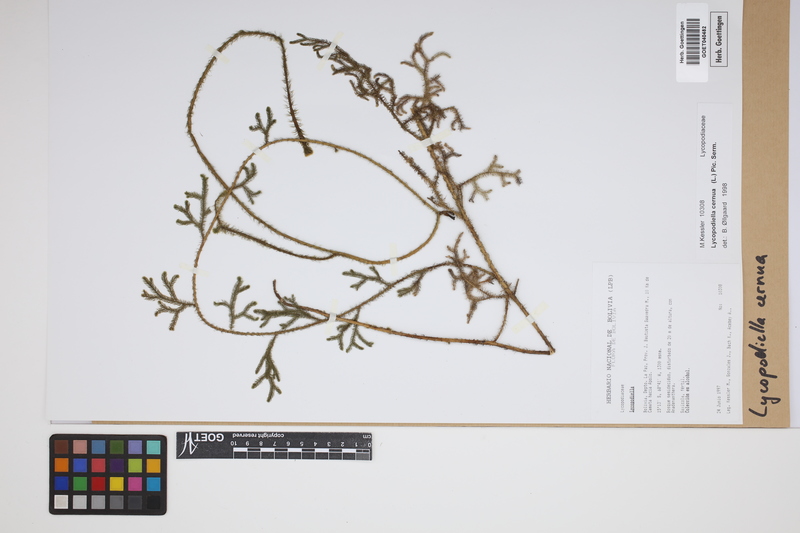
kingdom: Plantae
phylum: Tracheophyta
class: Lycopodiopsida
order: Lycopodiales
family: Lycopodiaceae
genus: Palhinhaea
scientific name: Palhinhaea cernua
